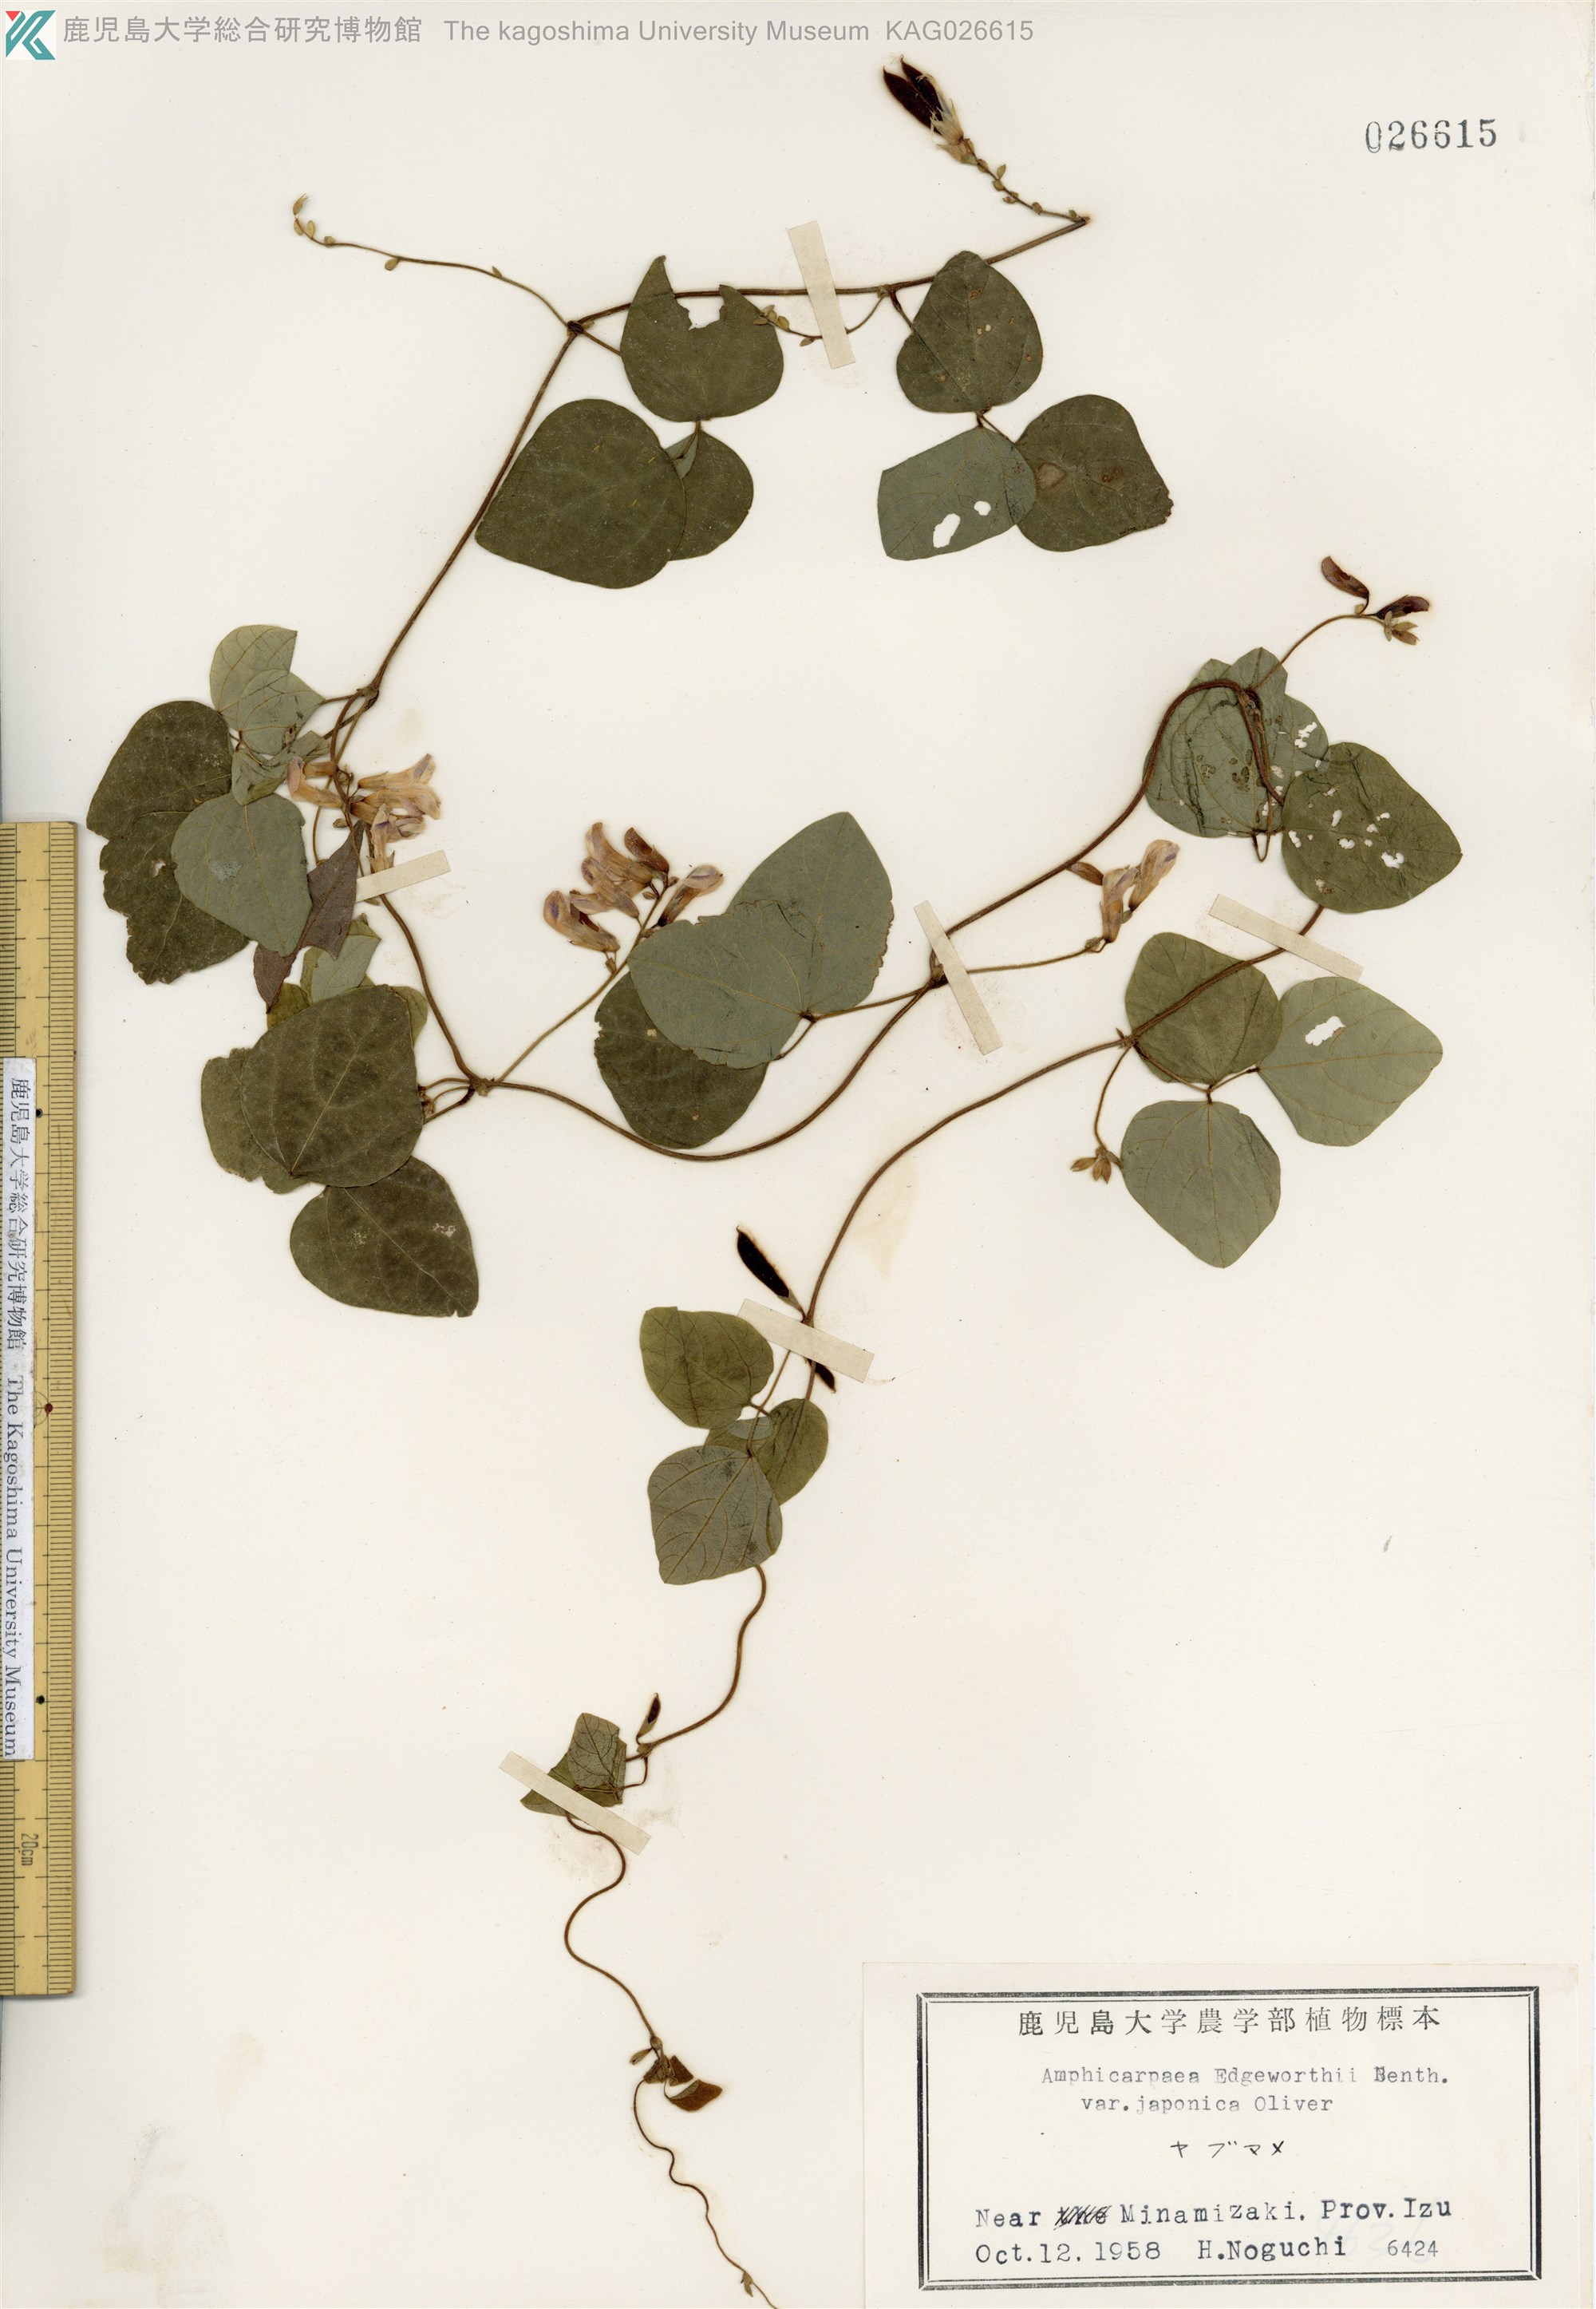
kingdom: Plantae
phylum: Tracheophyta
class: Magnoliopsida
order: Fabales
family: Fabaceae
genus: Amphicarpaea
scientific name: Amphicarpaea edgeworthii
